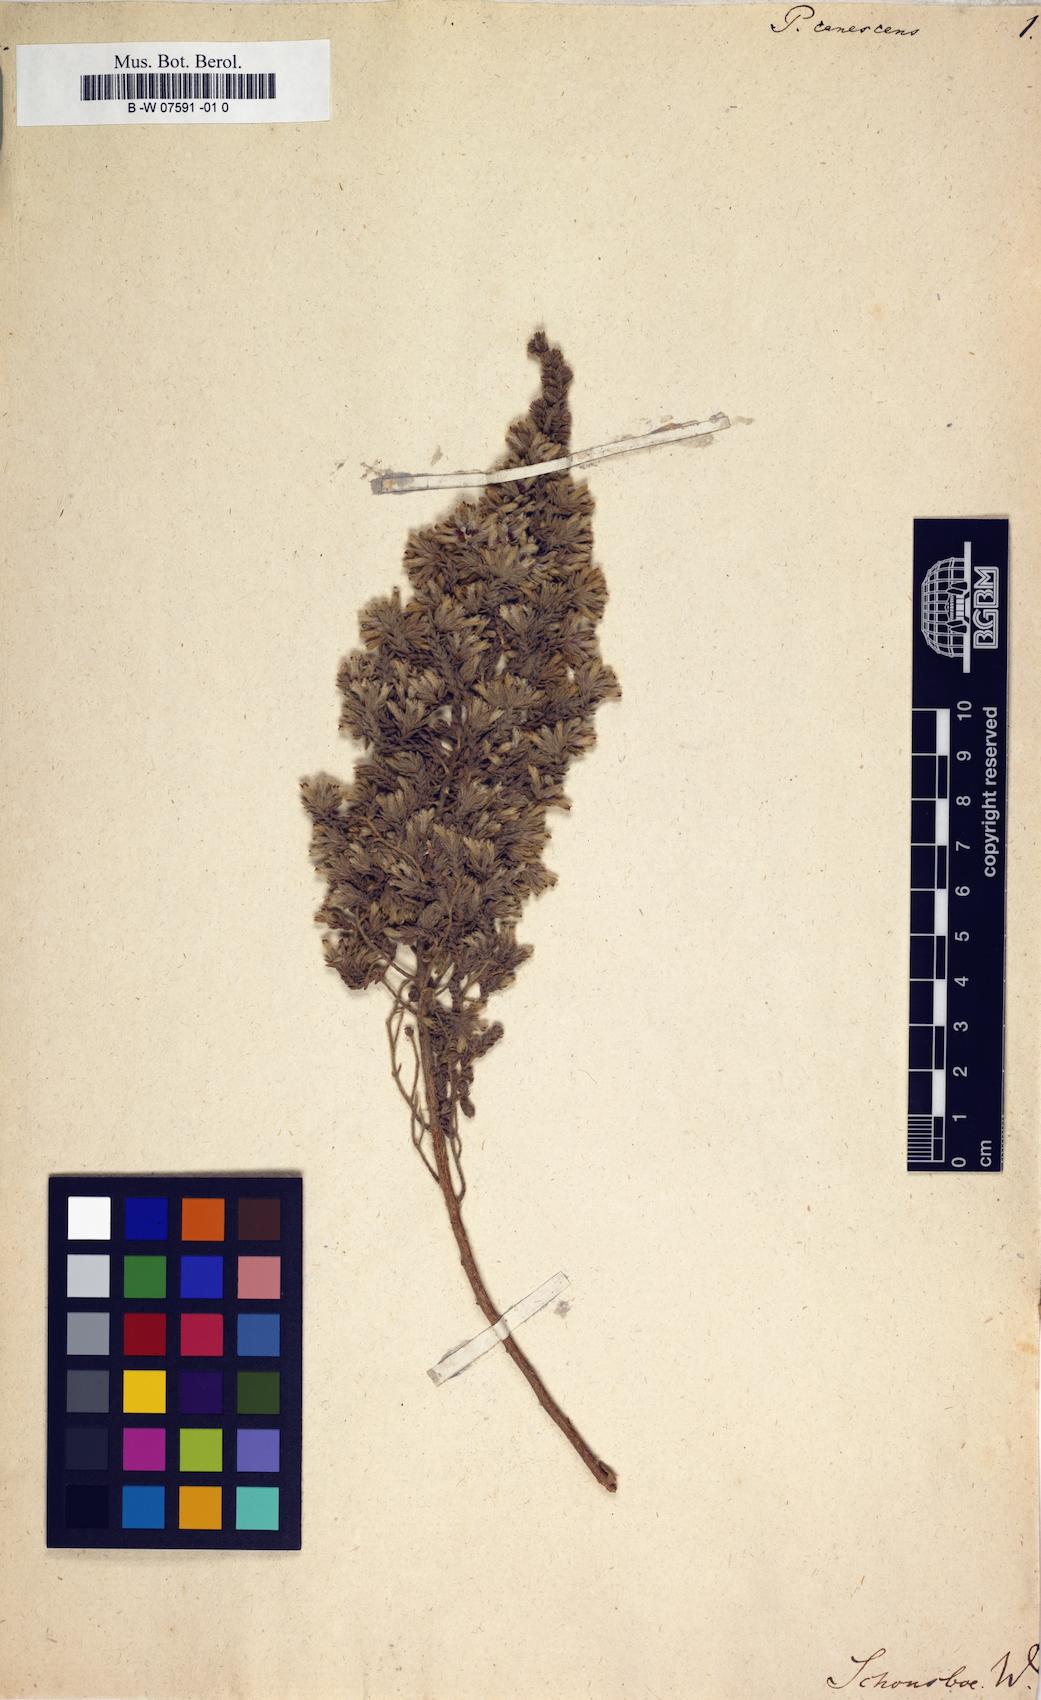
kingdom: Plantae
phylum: Tracheophyta
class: Magnoliopsida
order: Malvales
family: Thymelaeaceae
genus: Thymelaea
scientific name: Thymelaea lanuginosa
